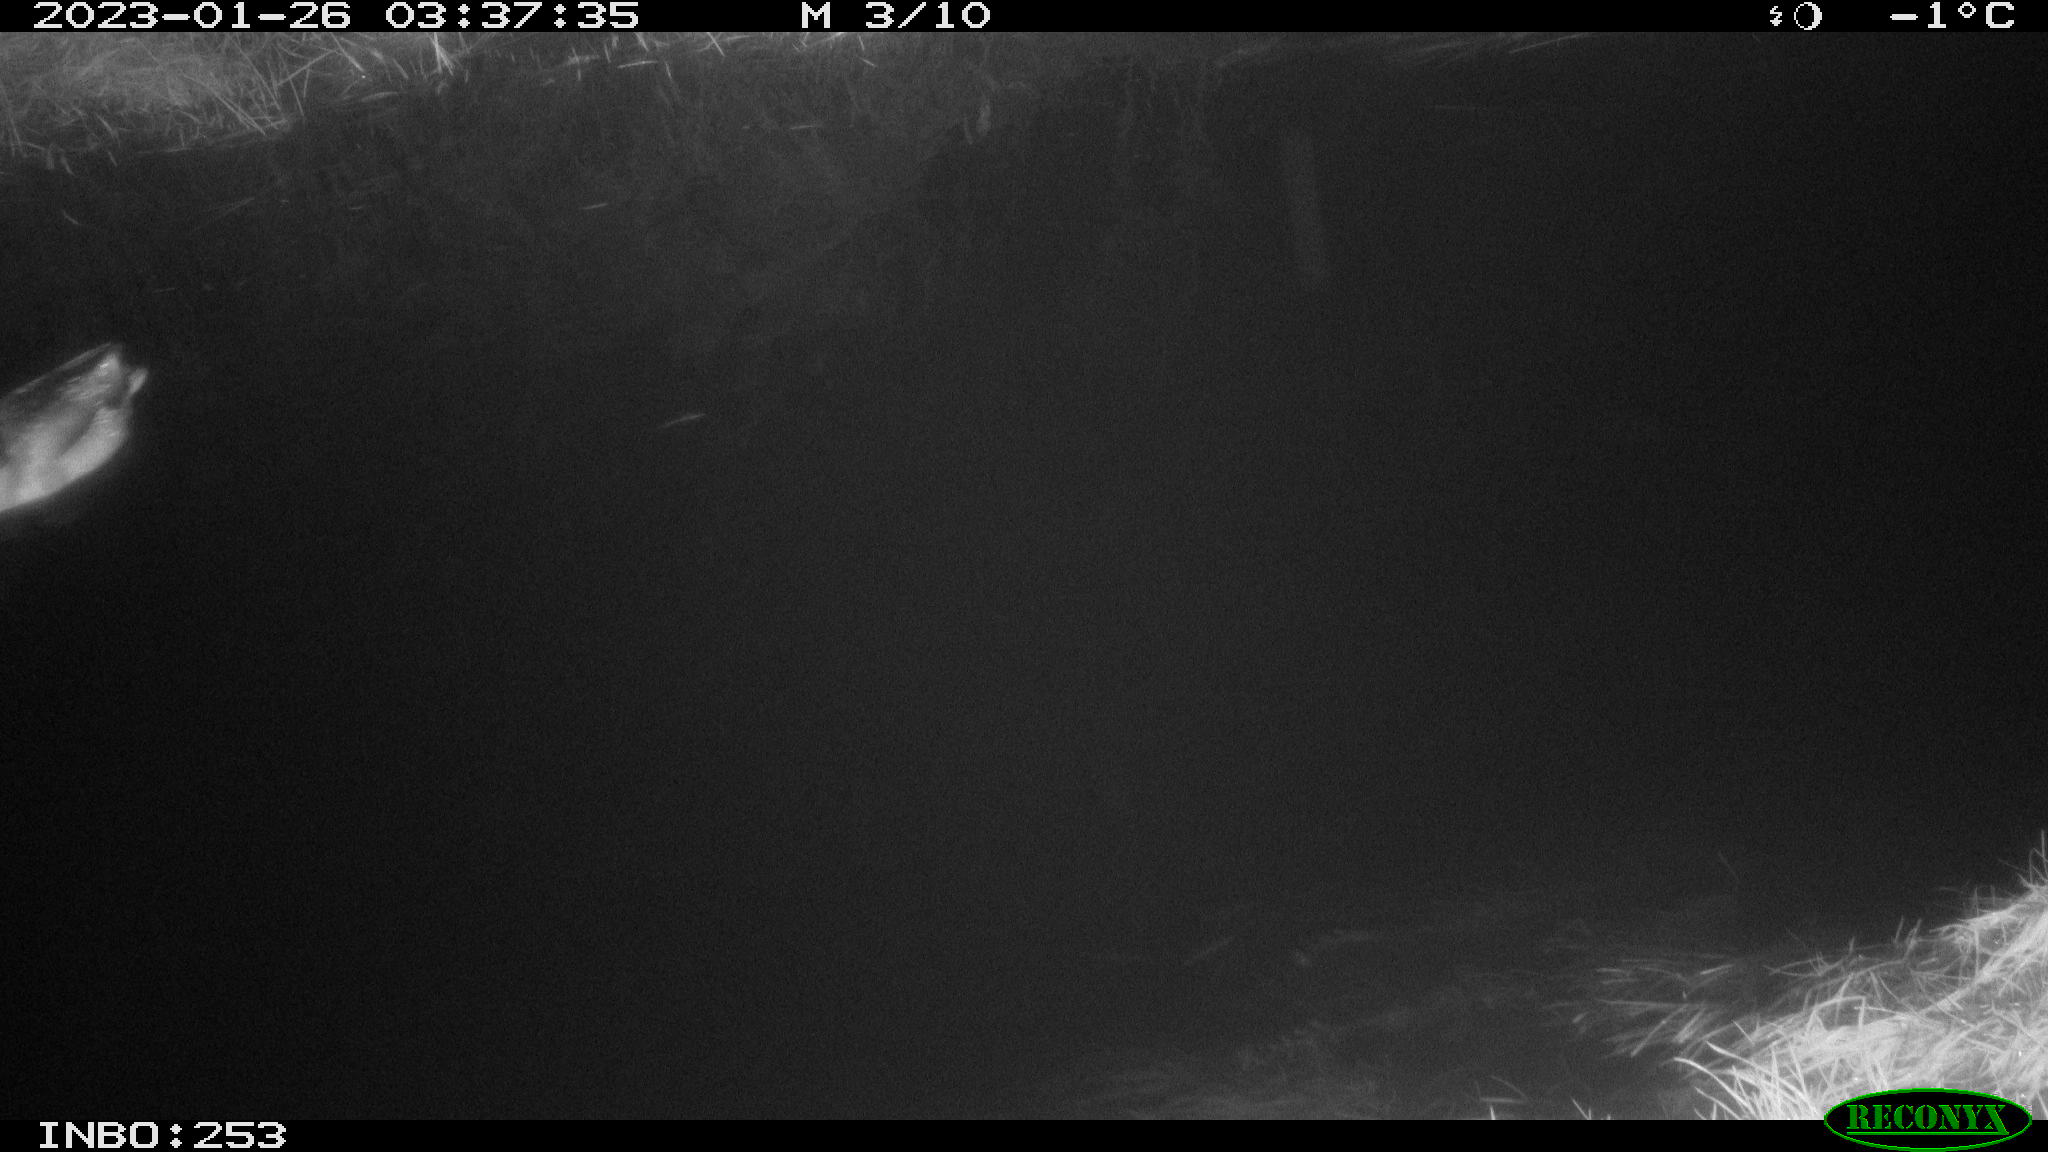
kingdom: Animalia
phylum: Chordata
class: Aves
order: Anseriformes
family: Anatidae
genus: Anas
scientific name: Anas
